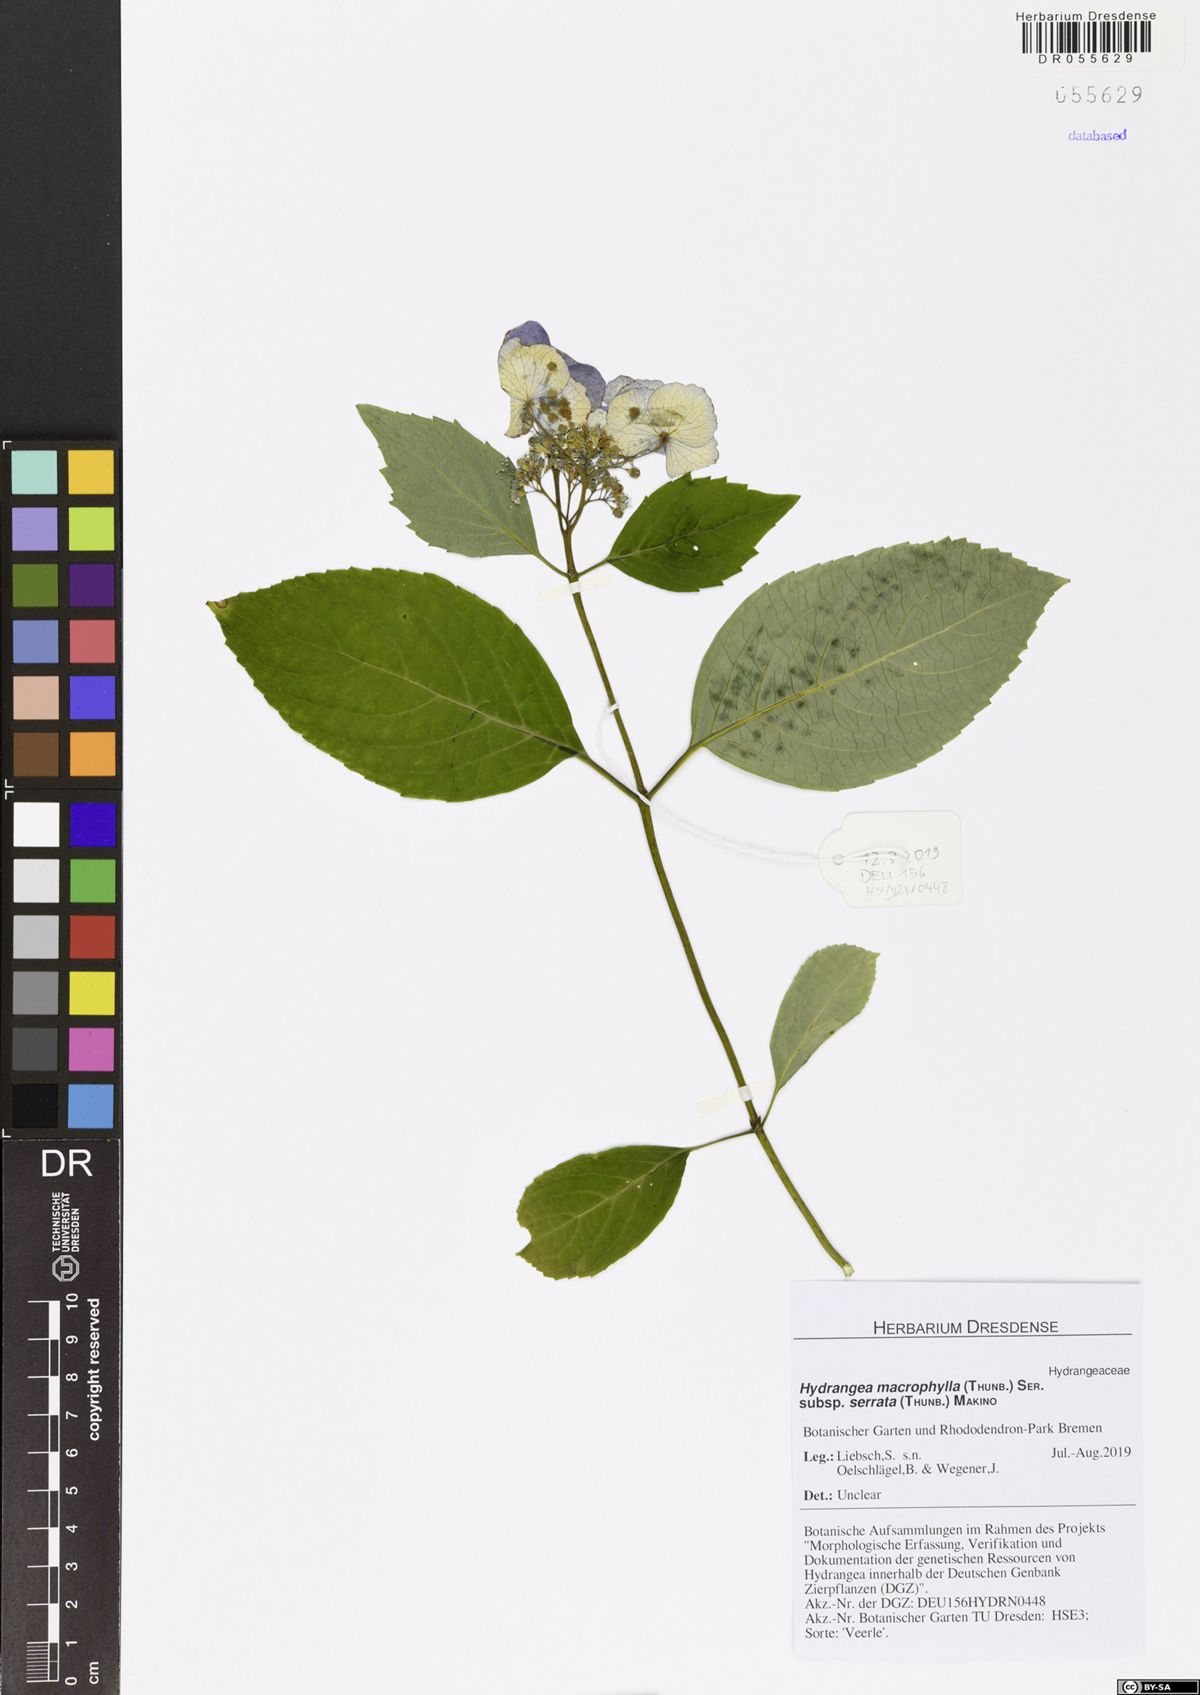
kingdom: Plantae
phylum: Tracheophyta
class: Magnoliopsida
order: Cornales
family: Hydrangeaceae
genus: Hydrangea
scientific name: Hydrangea serrata
